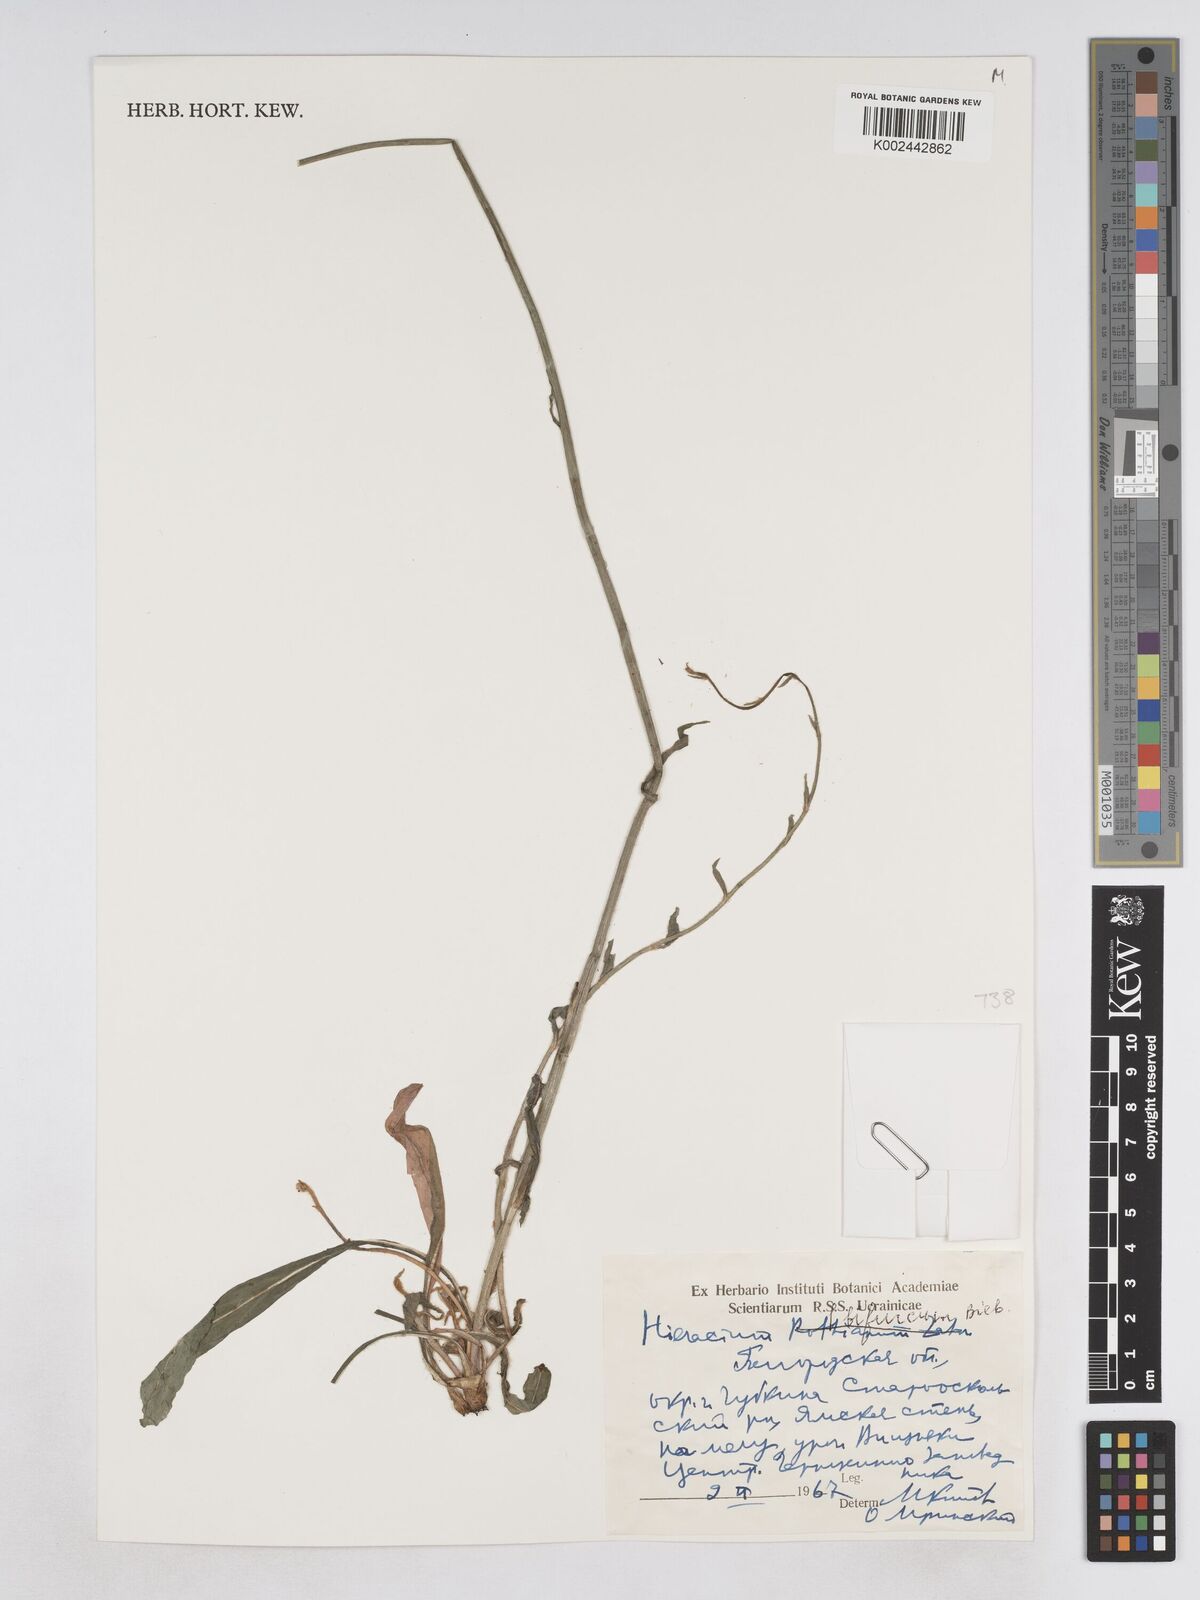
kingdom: Plantae
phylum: Tracheophyta
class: Magnoliopsida
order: Asterales
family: Asteraceae
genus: Pilosella
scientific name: Pilosella bifurca
